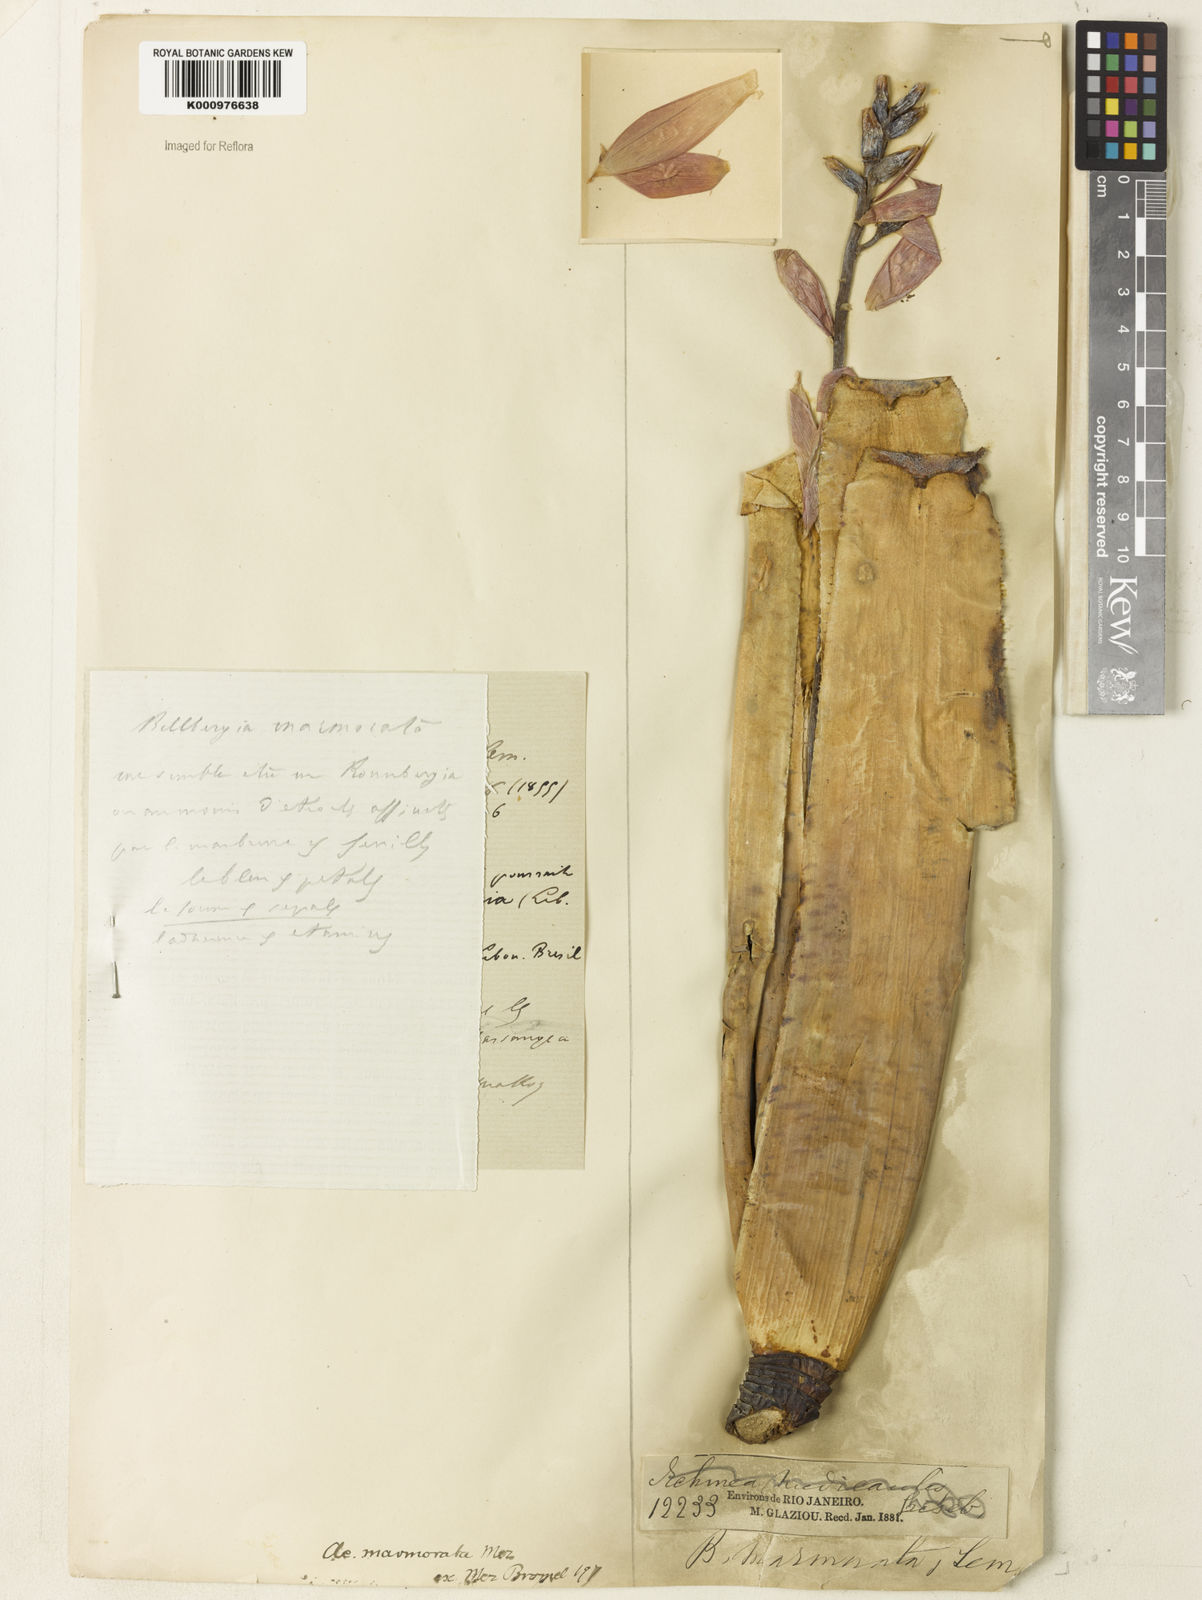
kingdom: Plantae
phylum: Tracheophyta
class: Liliopsida
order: Poales
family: Bromeliaceae
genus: Quesnelia
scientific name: Quesnelia marmorata
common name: Grecian urnplant
